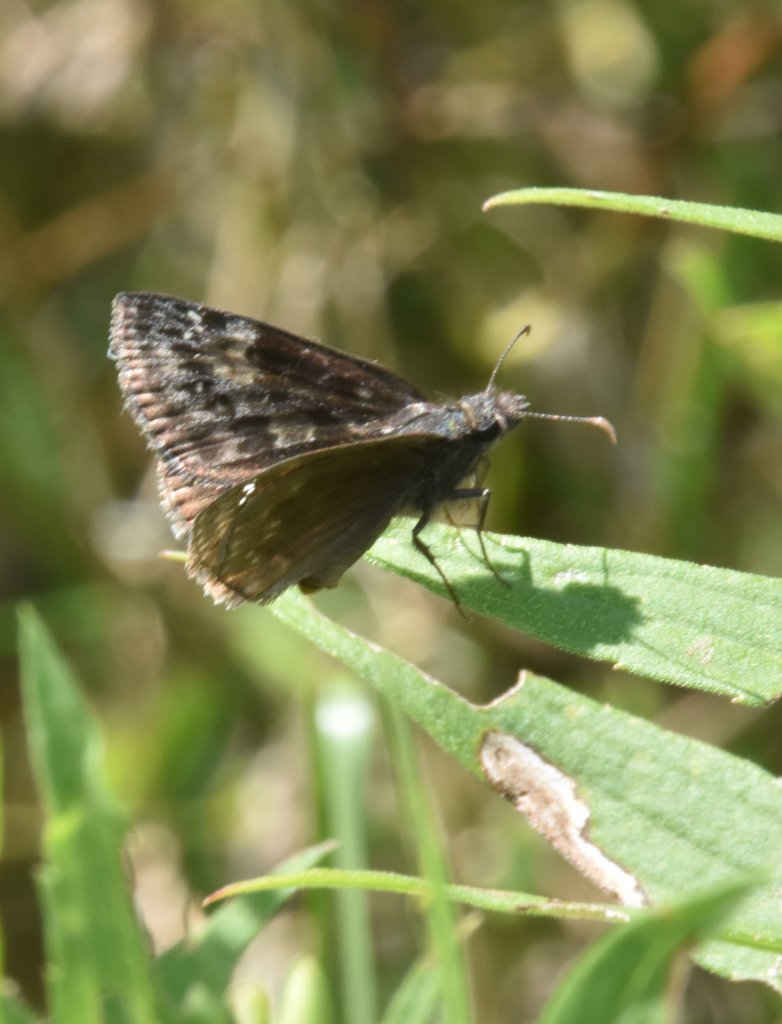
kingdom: Animalia
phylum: Arthropoda
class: Insecta
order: Lepidoptera
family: Hesperiidae
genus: Gesta
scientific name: Gesta
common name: Wild Indigo Duskywing
